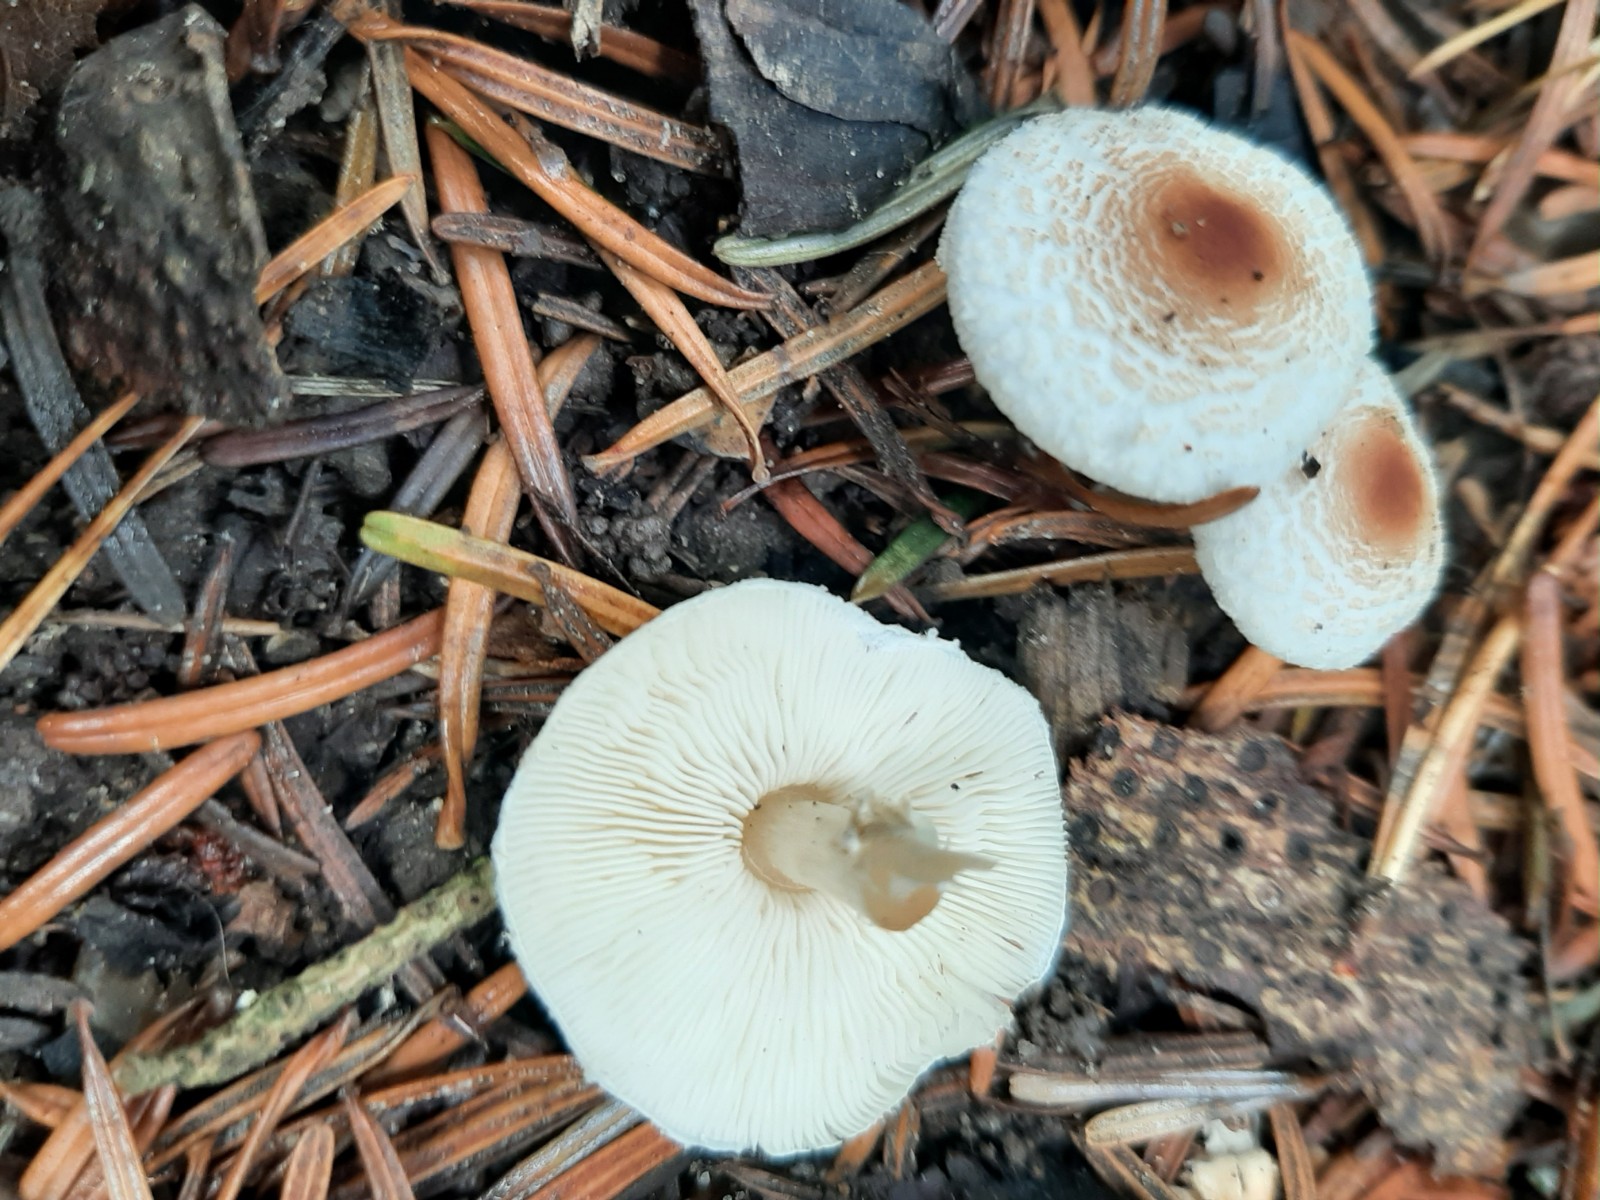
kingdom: Fungi
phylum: Basidiomycota
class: Agaricomycetes
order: Agaricales
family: Agaricaceae
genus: Lepiota
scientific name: Lepiota cristata
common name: stinkende parasolhat
